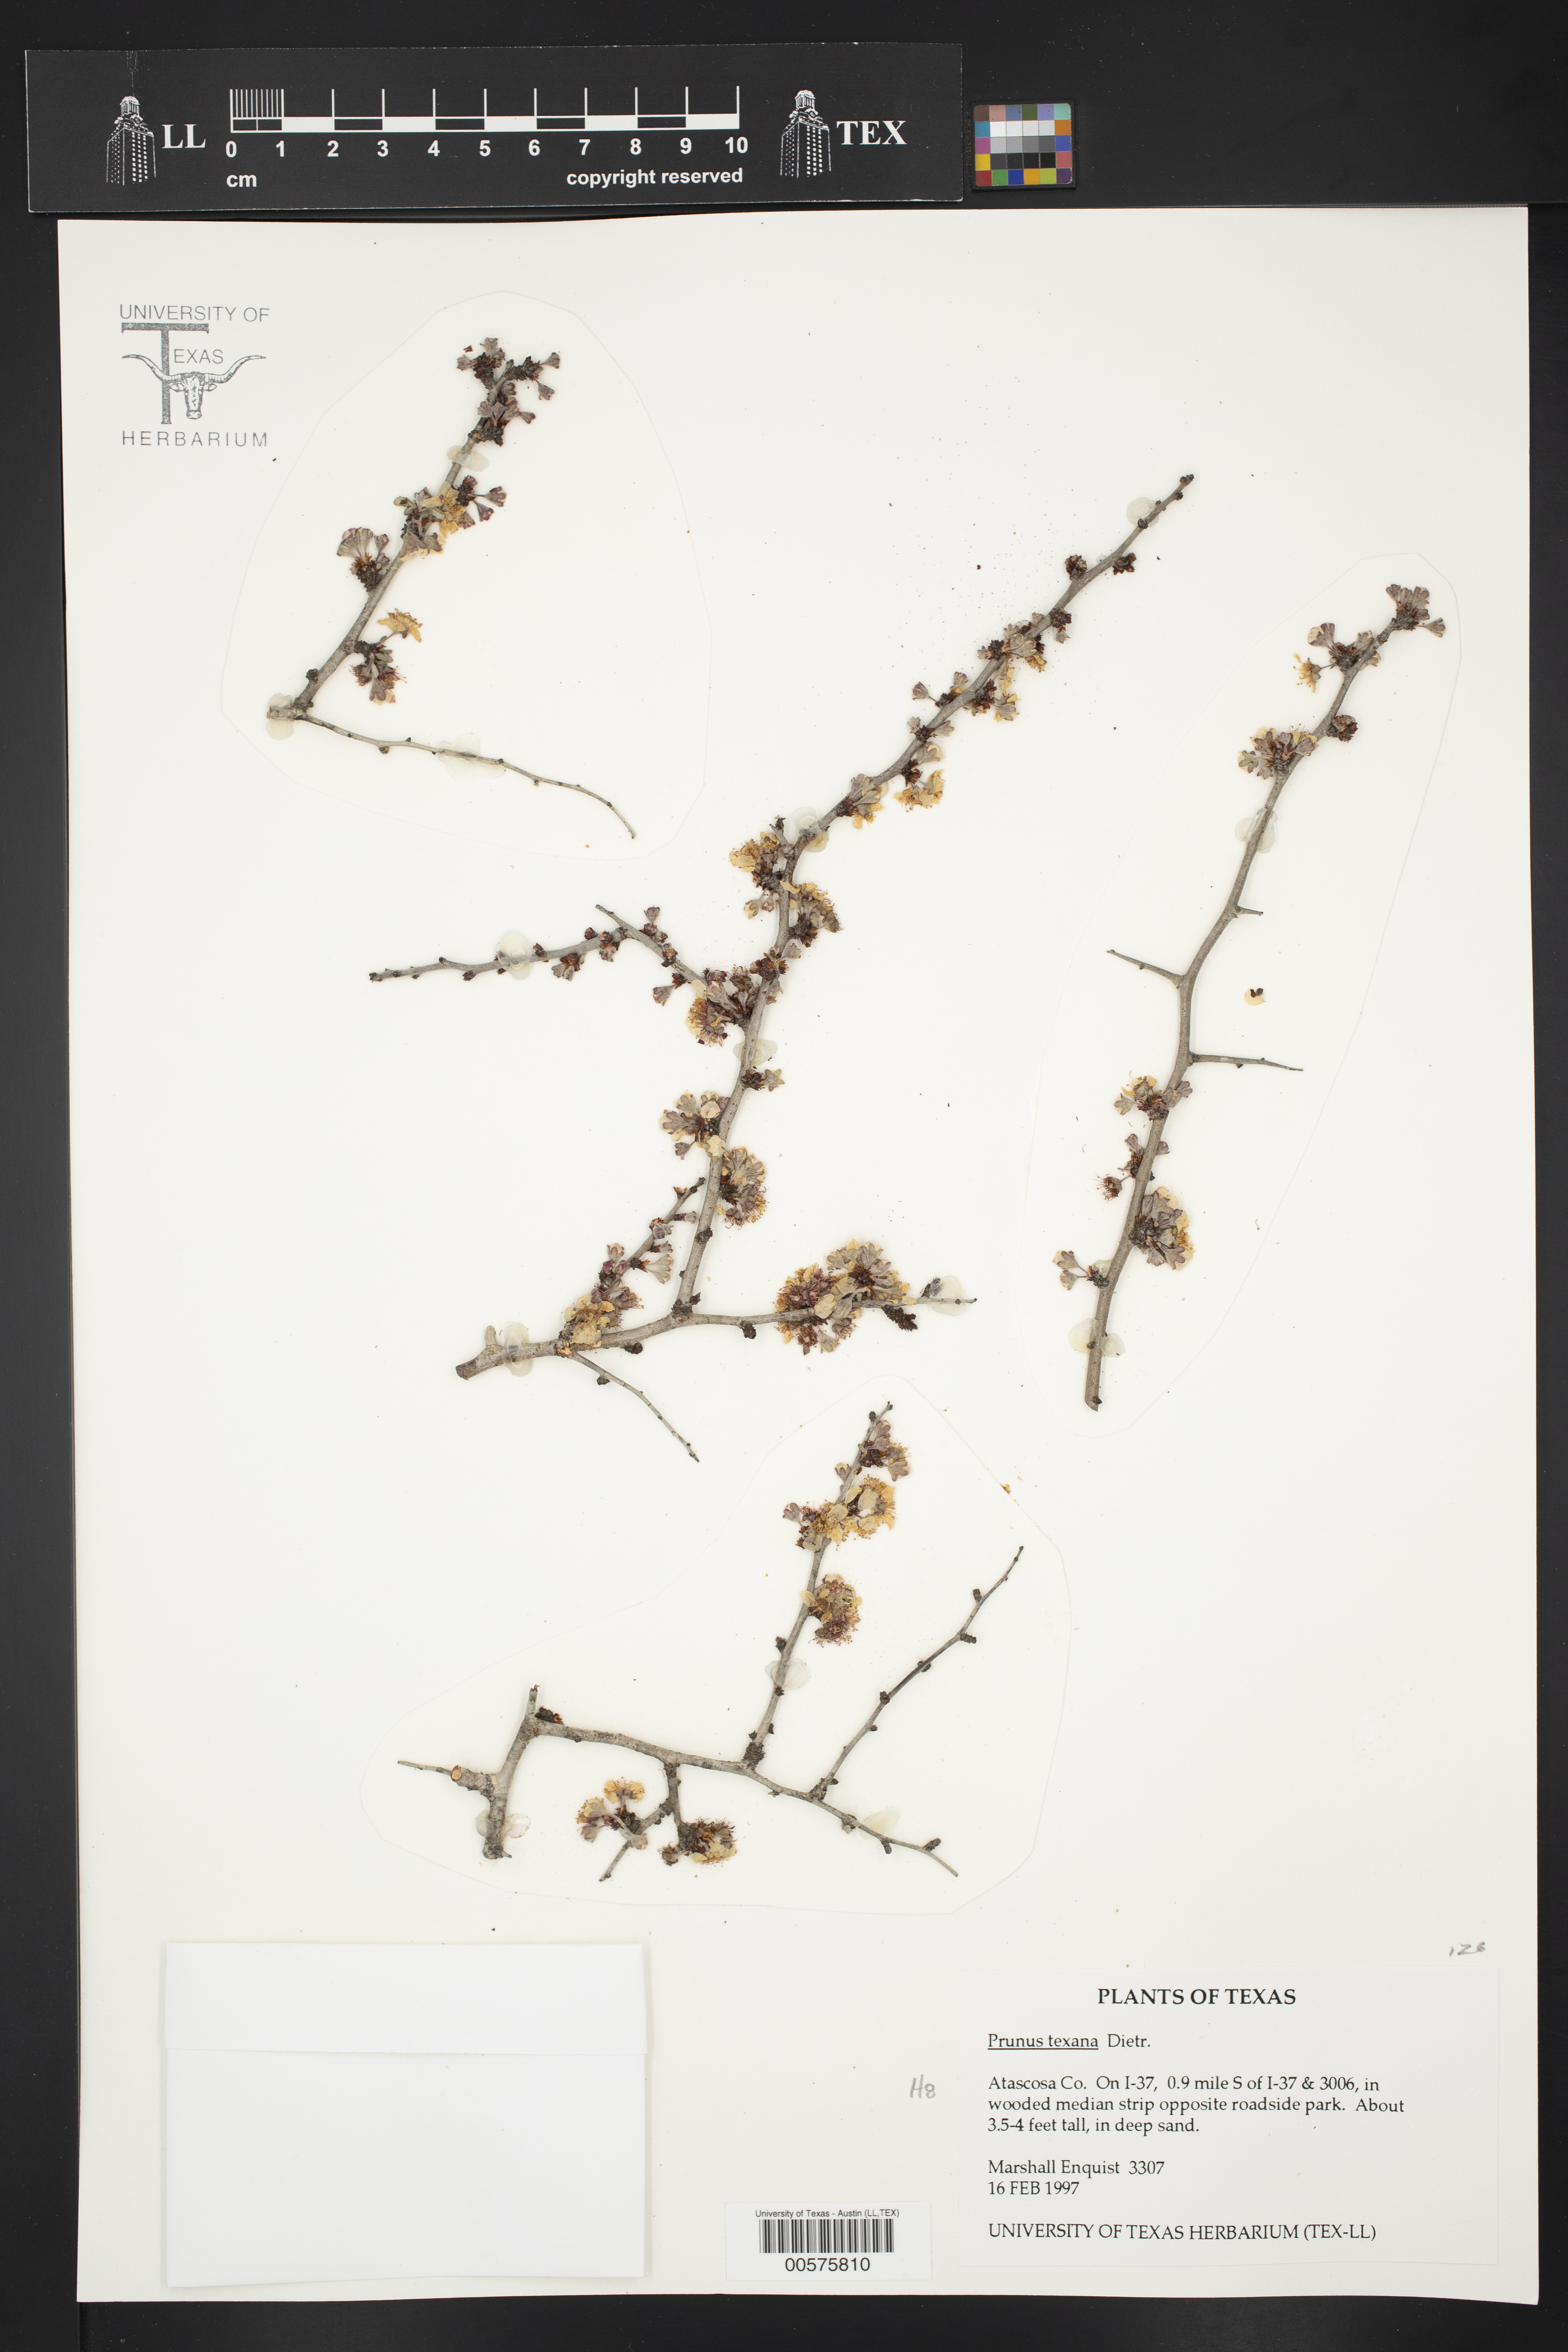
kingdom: Plantae
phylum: Tracheophyta
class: Magnoliopsida
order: Rosales
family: Rosaceae
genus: Prunus
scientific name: Prunus texana
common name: Texas almond cherry
